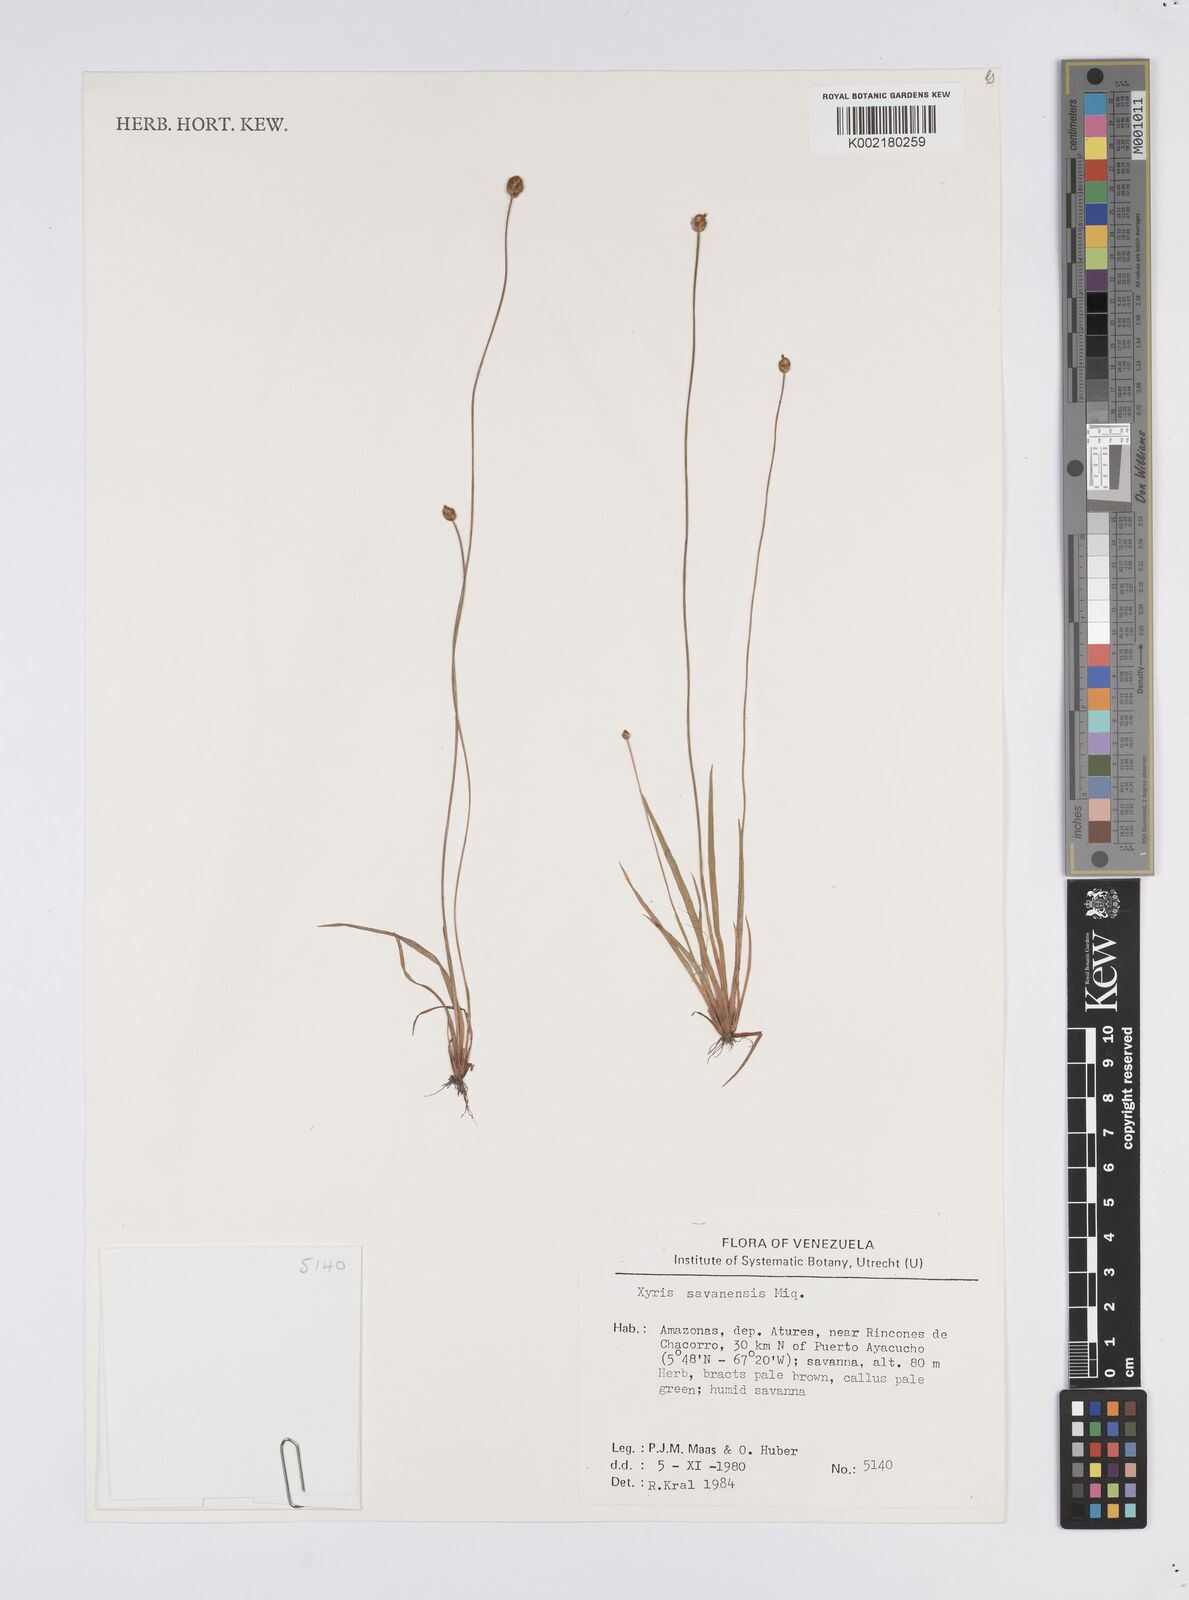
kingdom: Plantae
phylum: Tracheophyta
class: Liliopsida
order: Poales
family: Xyridaceae
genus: Xyris
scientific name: Xyris savanensis
